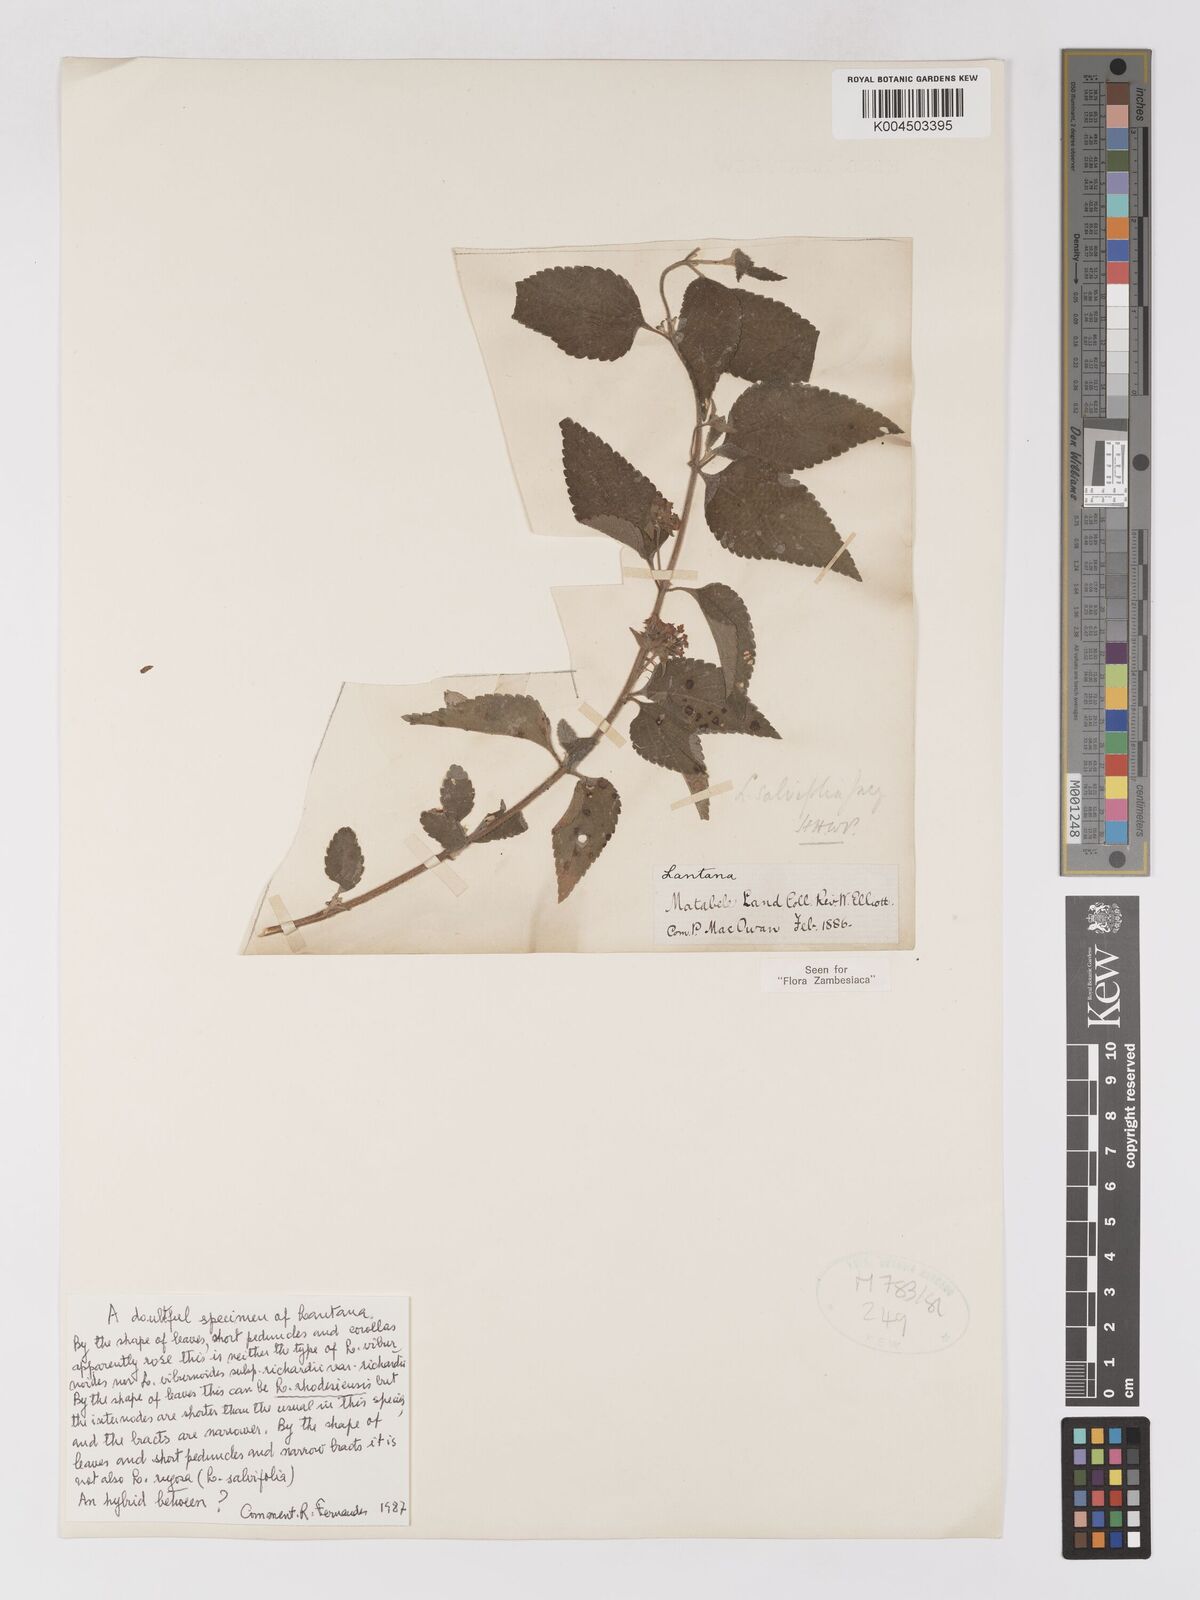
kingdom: Plantae
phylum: Tracheophyta
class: Magnoliopsida
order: Lamiales
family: Verbenaceae
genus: Lantana
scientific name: Lantana ukambensis
